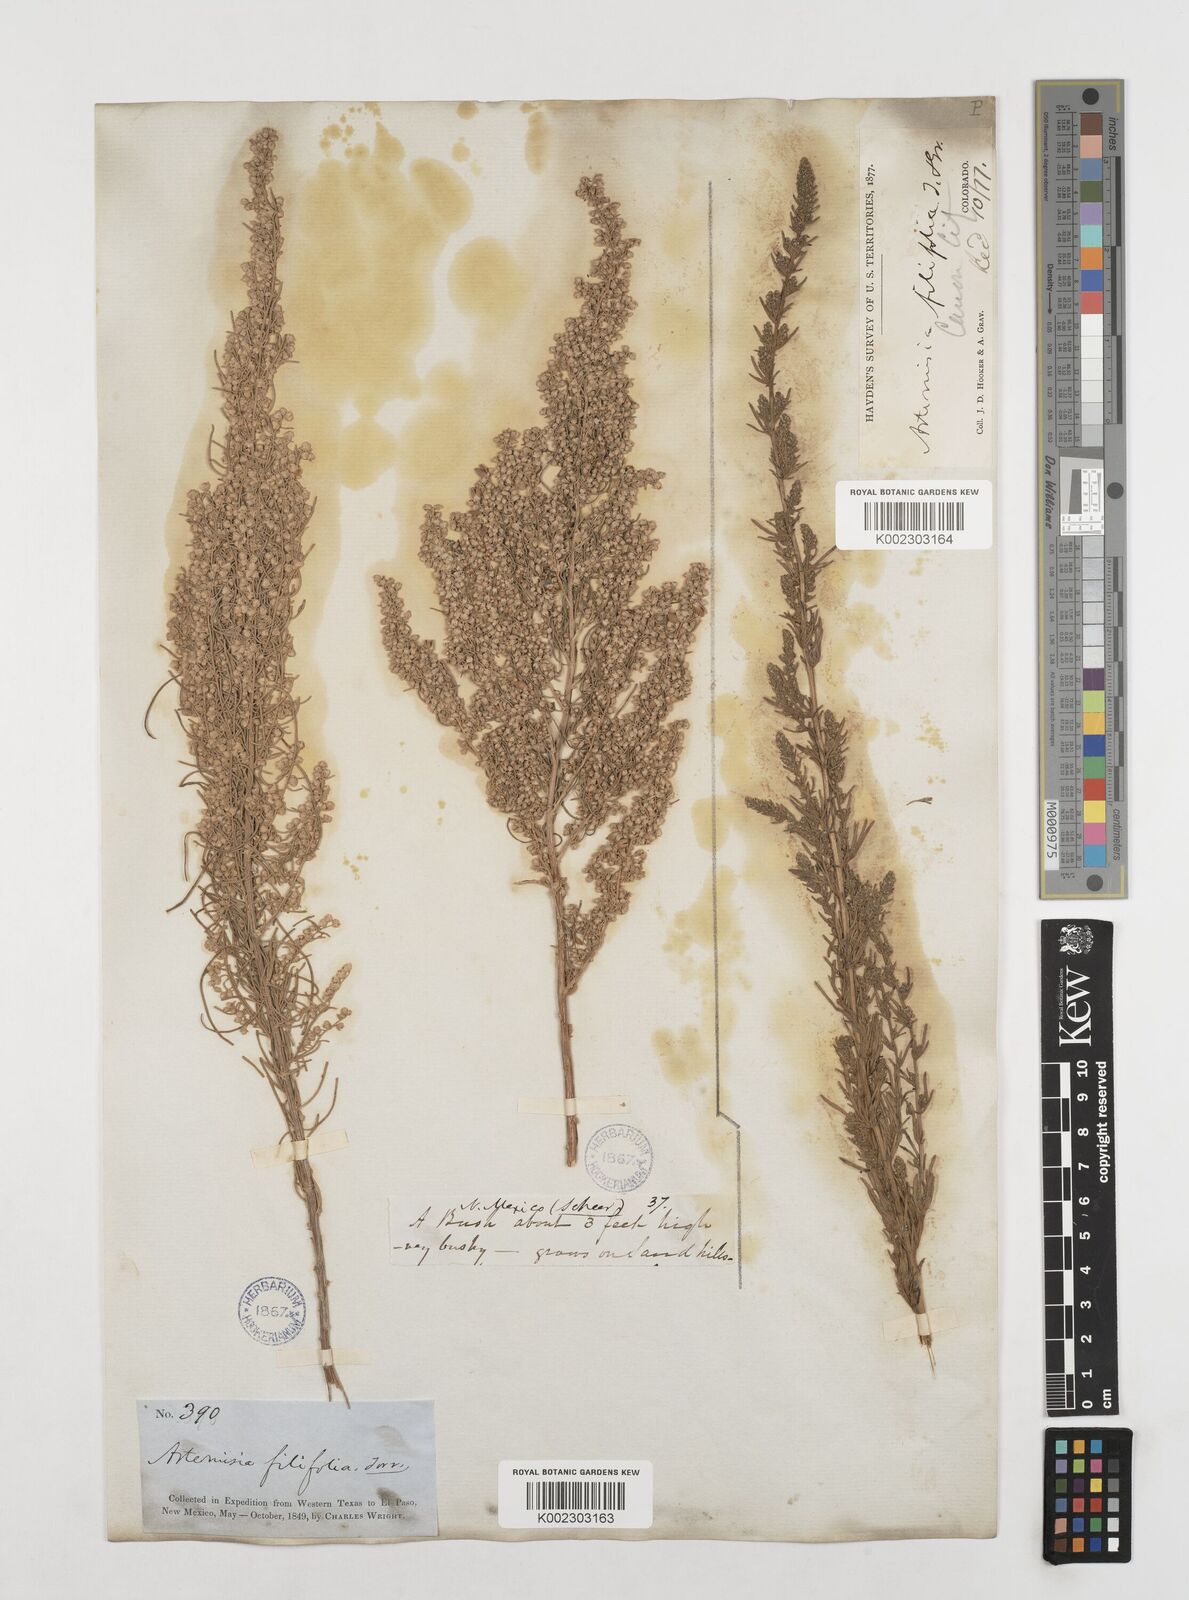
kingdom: Plantae
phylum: Tracheophyta
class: Magnoliopsida
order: Asterales
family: Asteraceae
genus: Artemisia
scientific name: Artemisia filifolia
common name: Sand-sage
